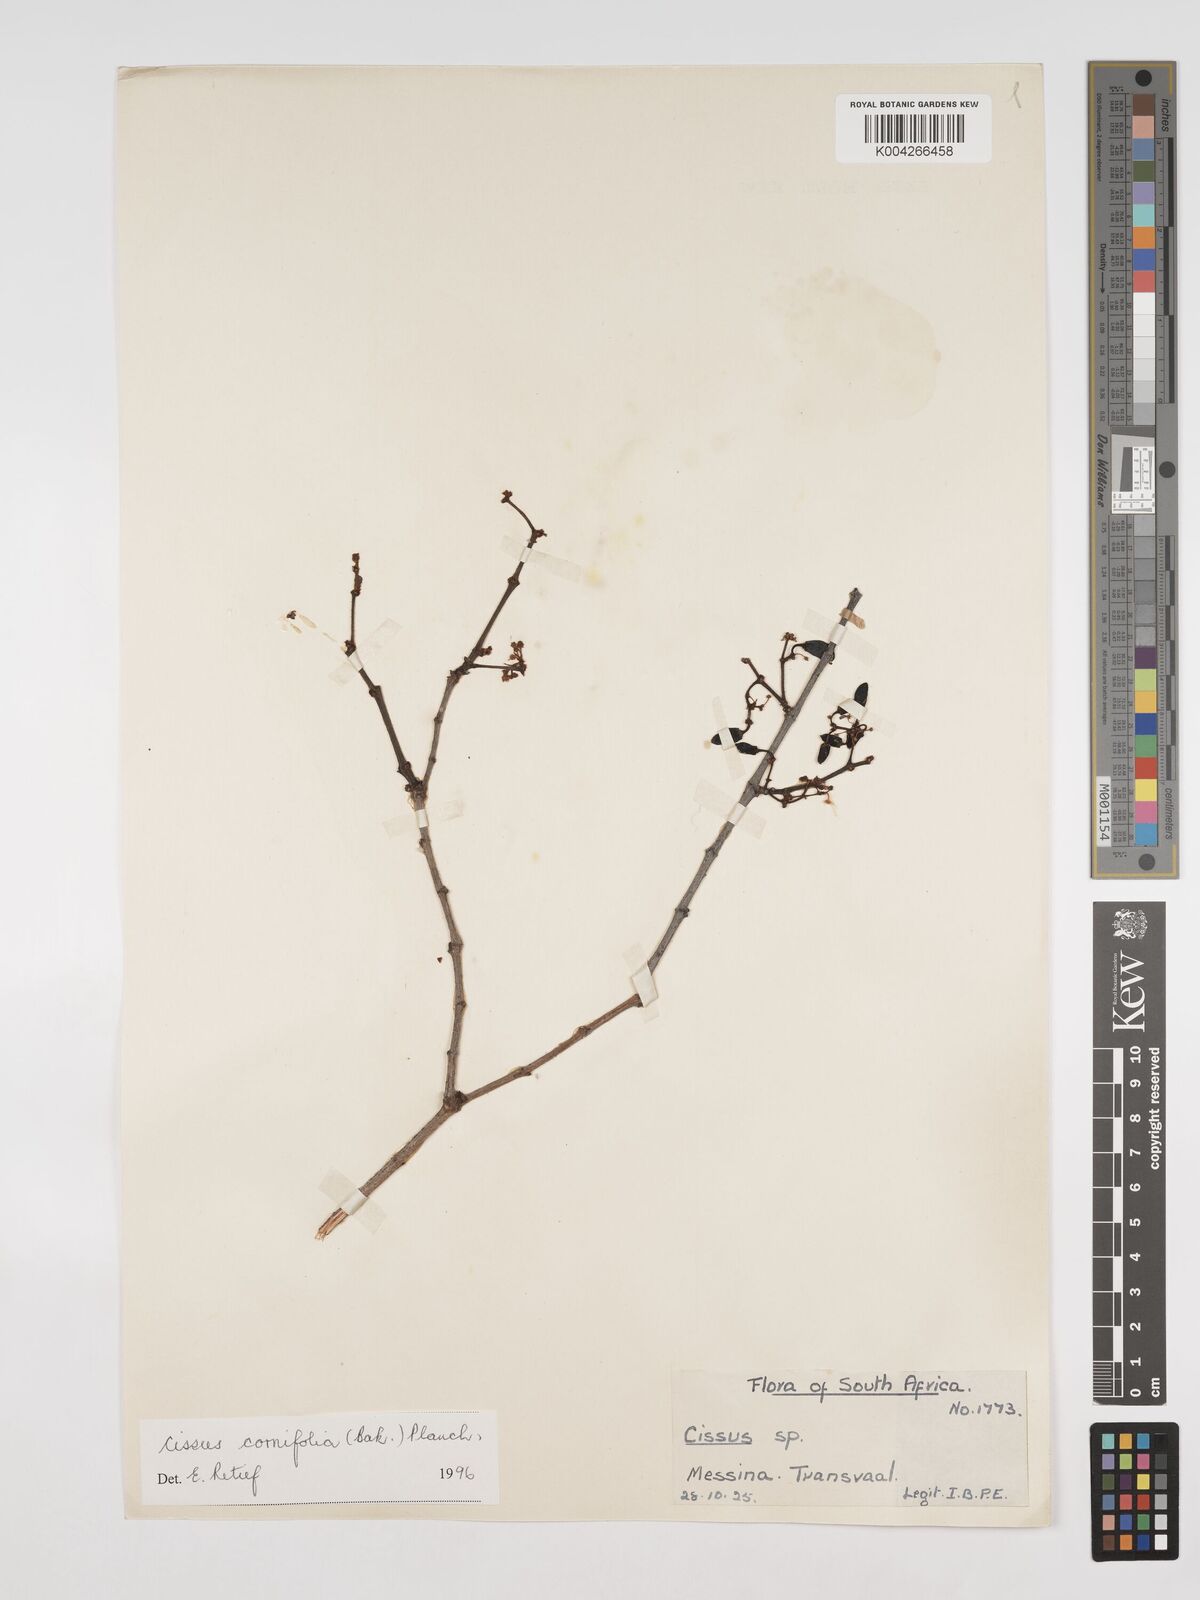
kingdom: Plantae
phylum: Tracheophyta
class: Magnoliopsida
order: Vitales
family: Vitaceae
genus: Cissus
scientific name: Cissus cornifolia
